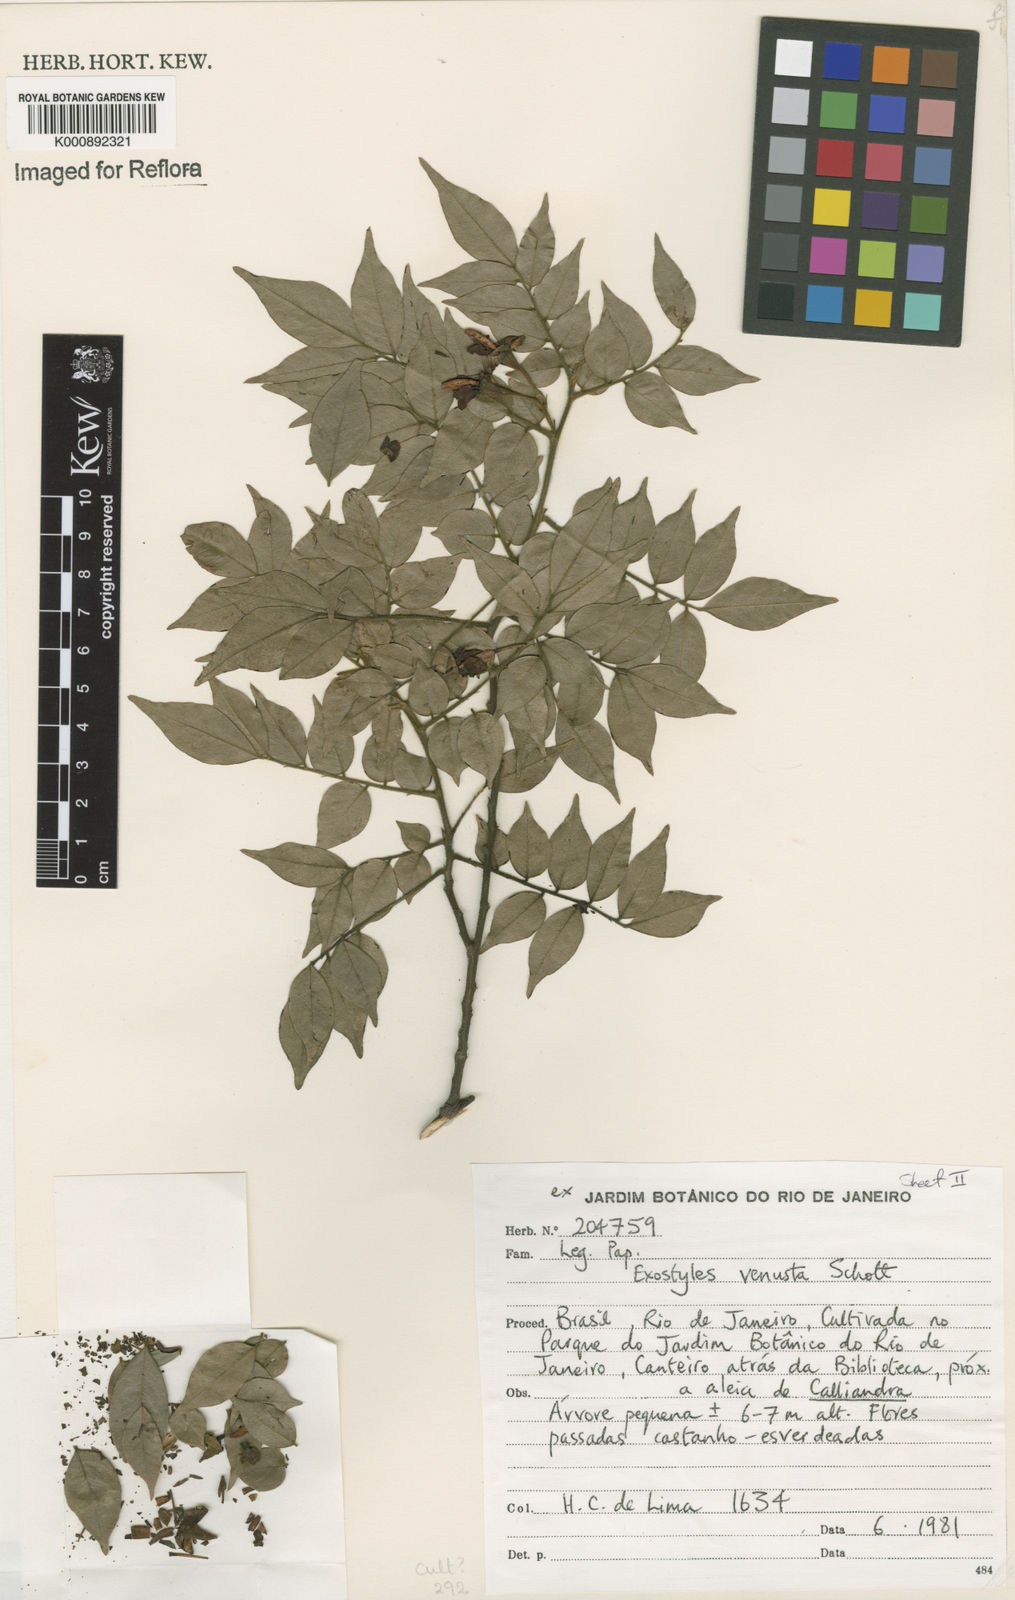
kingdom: Plantae
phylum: Tracheophyta
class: Magnoliopsida
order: Fabales
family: Fabaceae
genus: Exostyles
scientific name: Exostyles venusta
